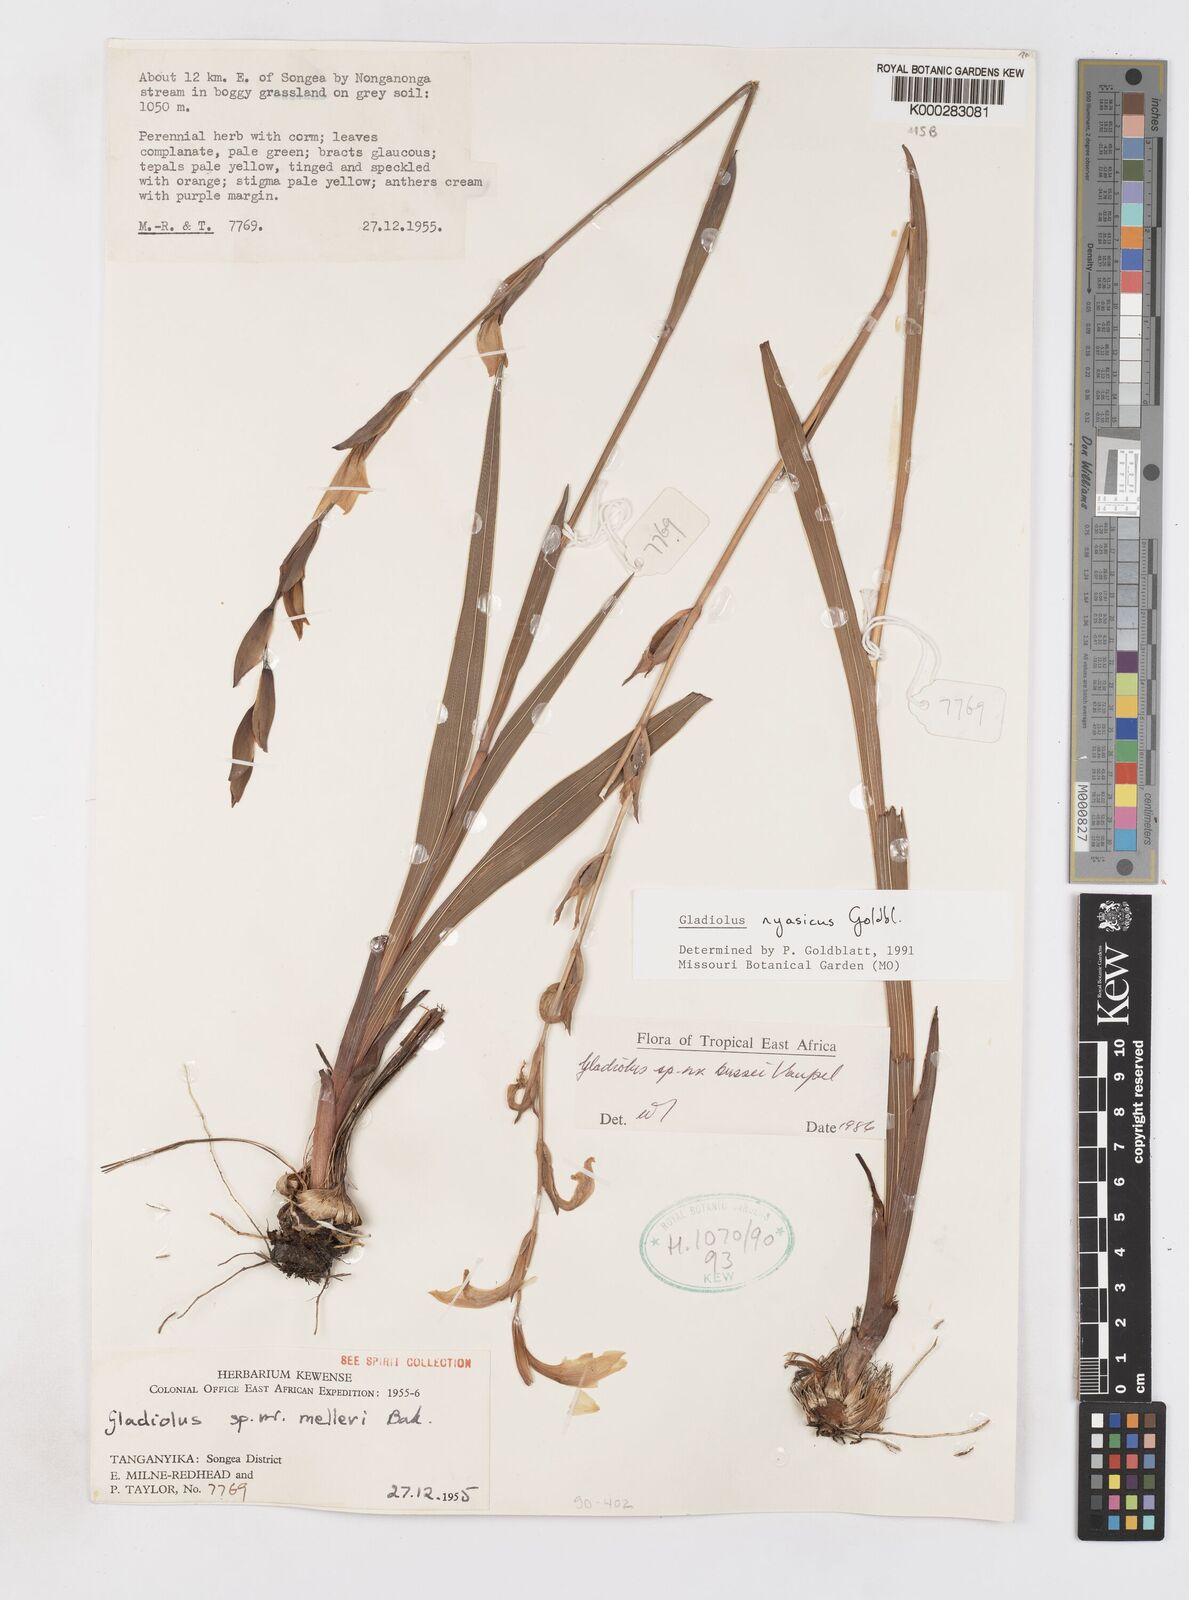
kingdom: Plantae
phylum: Tracheophyta
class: Liliopsida
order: Asparagales
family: Iridaceae
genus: Gladiolus
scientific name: Gladiolus nyasicus
